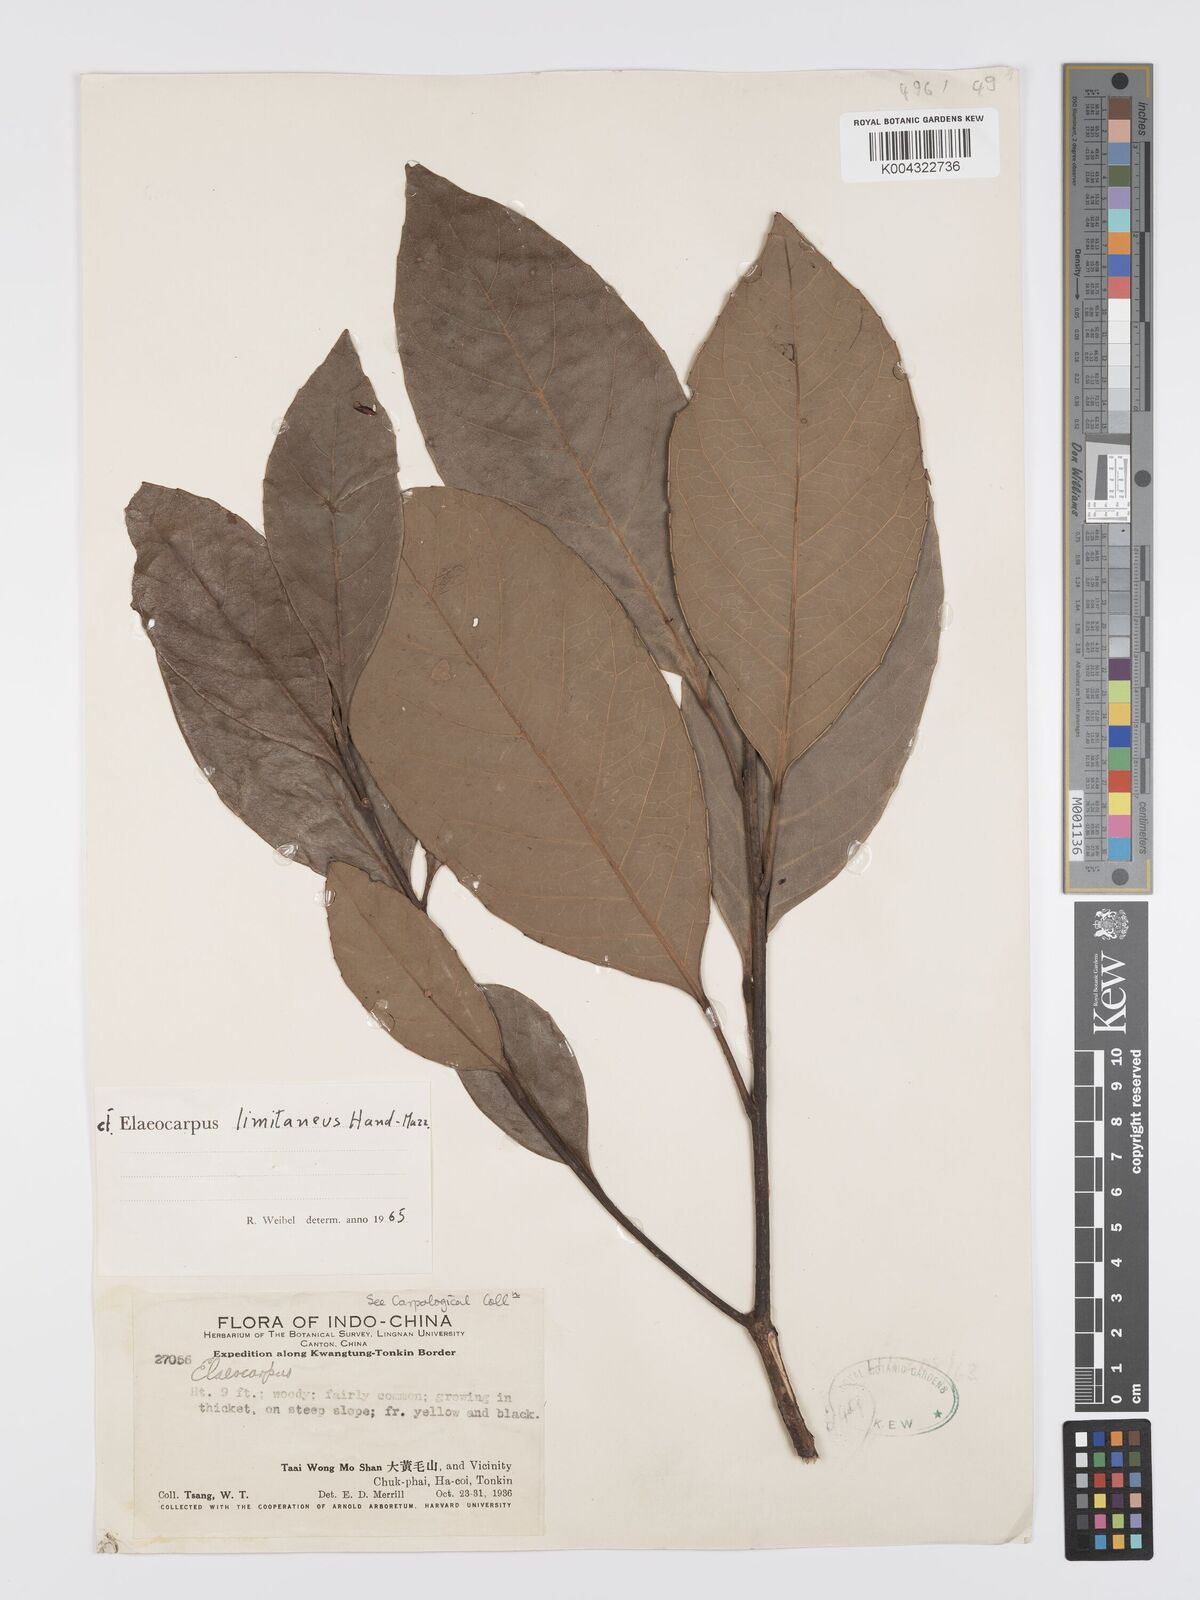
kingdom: Plantae
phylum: Tracheophyta
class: Magnoliopsida
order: Oxalidales
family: Elaeocarpaceae
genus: Elaeocarpus
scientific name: Elaeocarpus limitaneus
